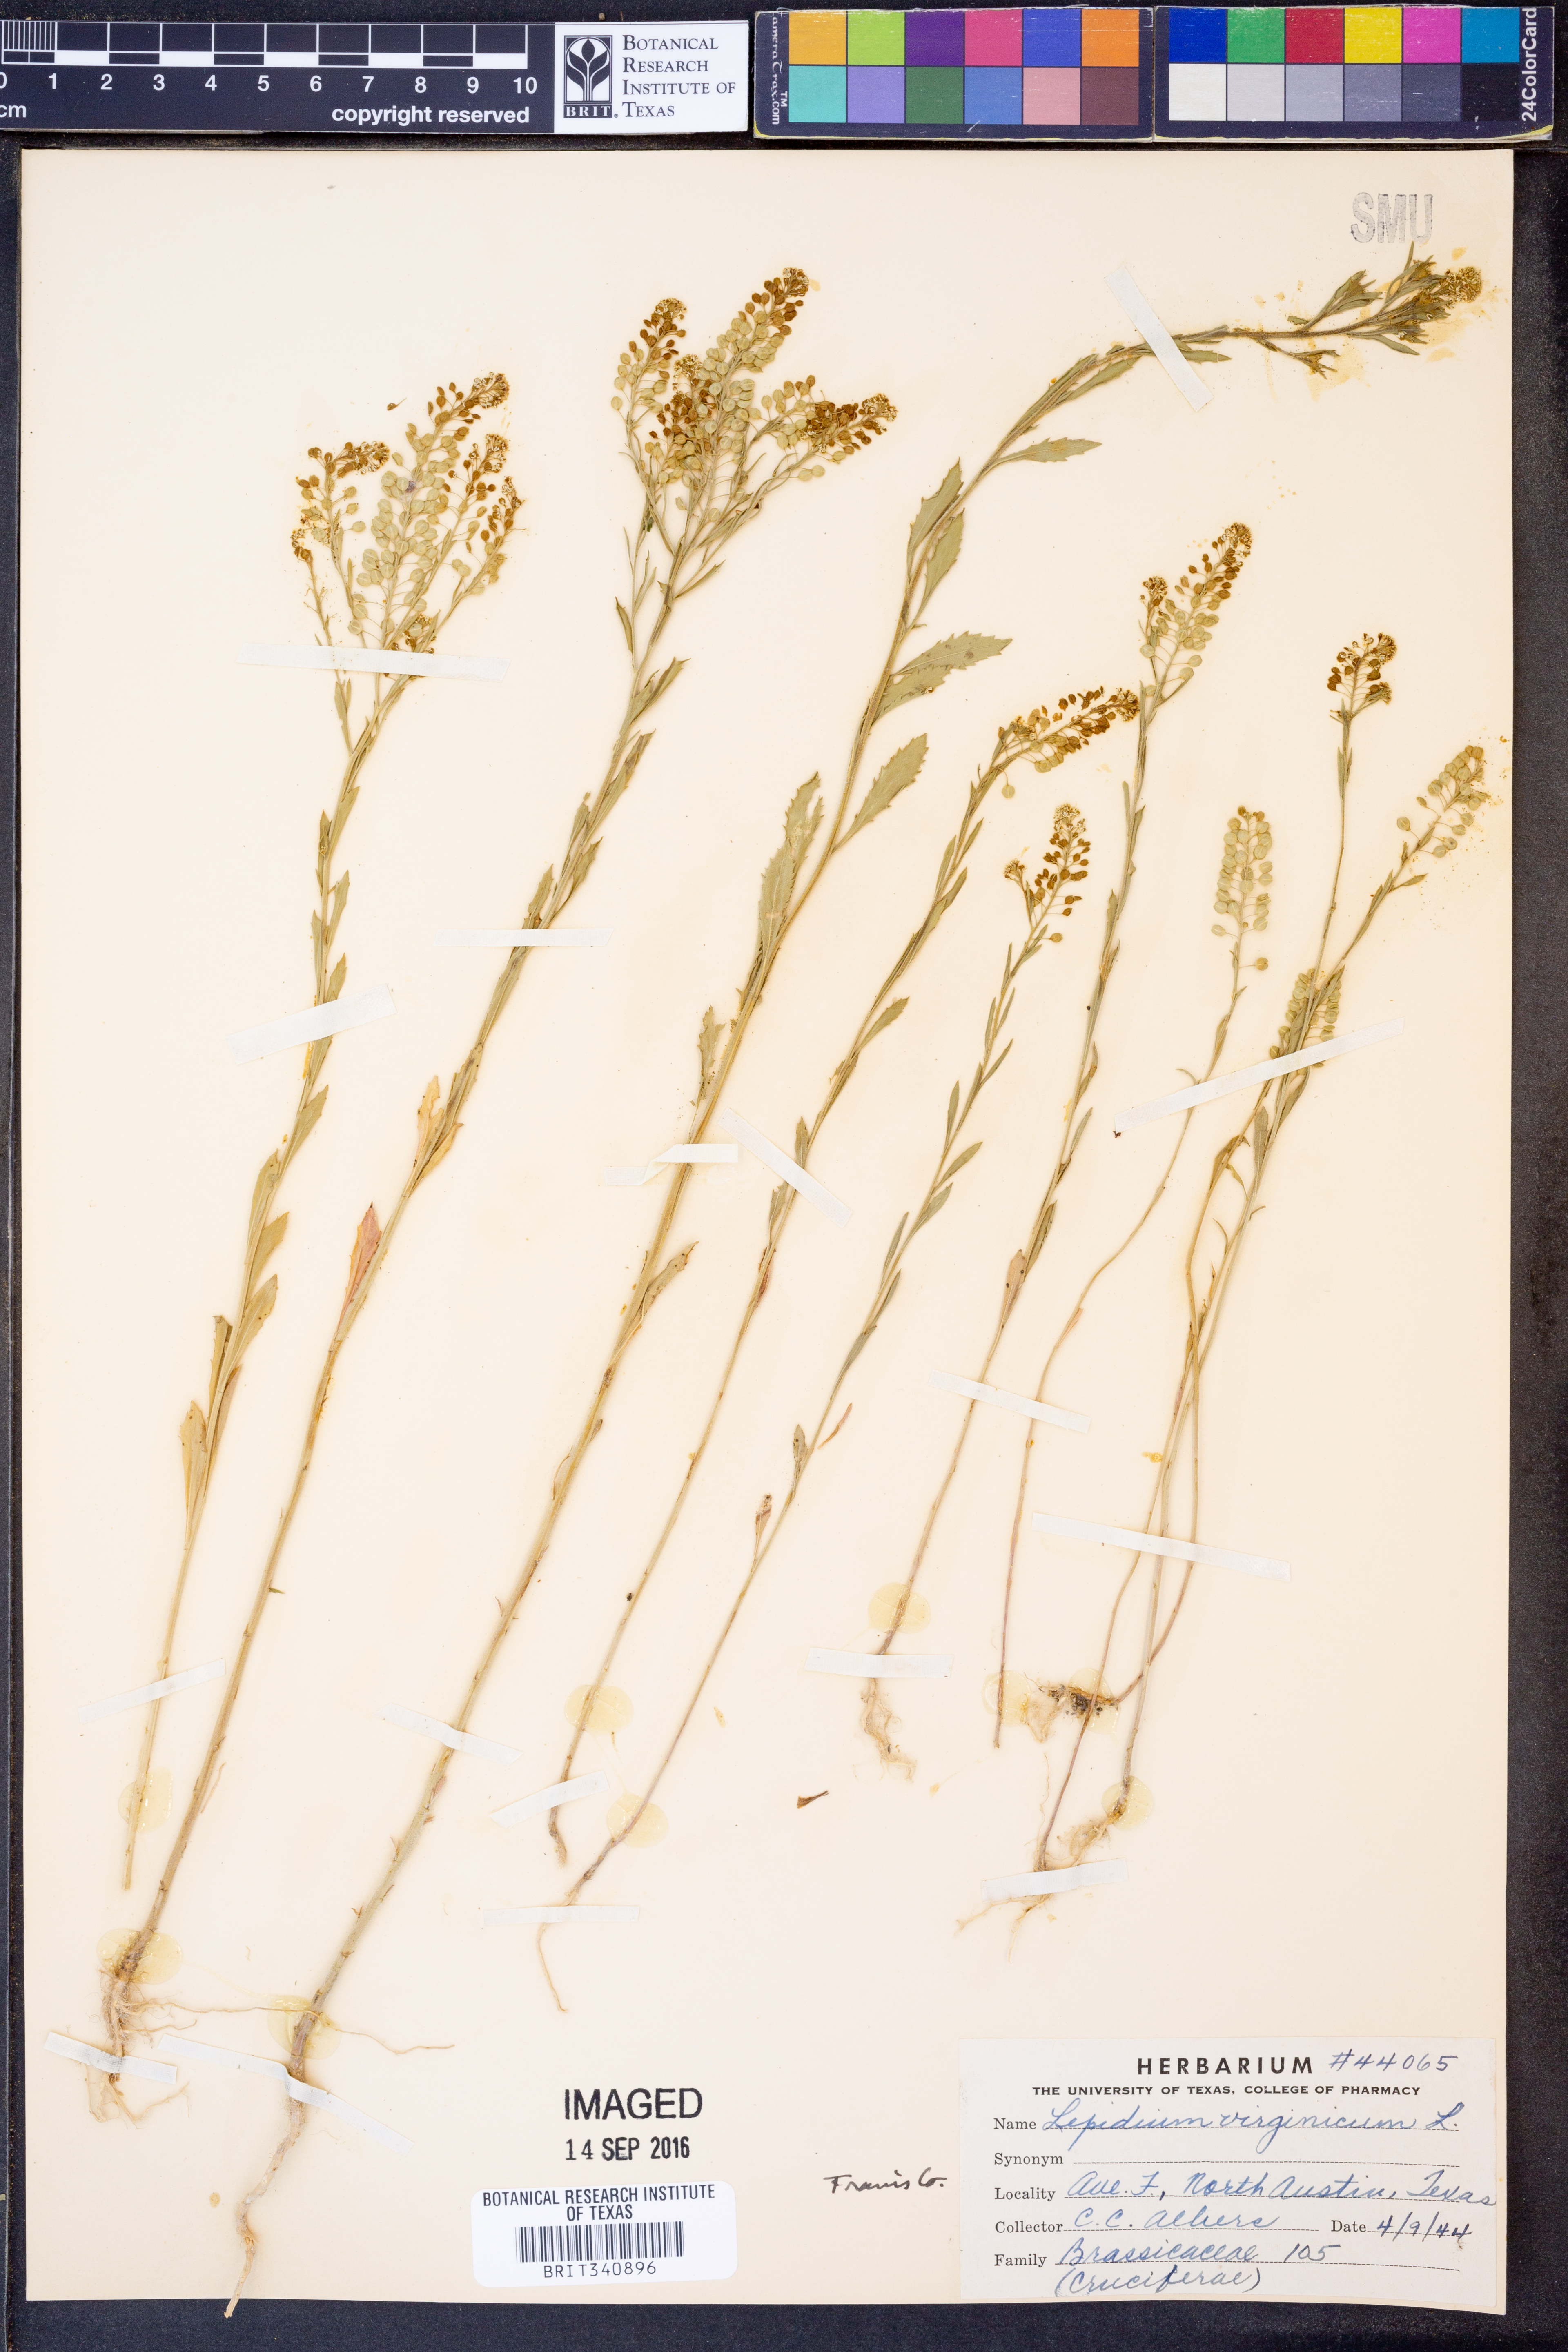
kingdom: Plantae
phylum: Tracheophyta
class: Magnoliopsida
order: Brassicales
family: Brassicaceae
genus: Lepidium
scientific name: Lepidium virginicum
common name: Least pepperwort
